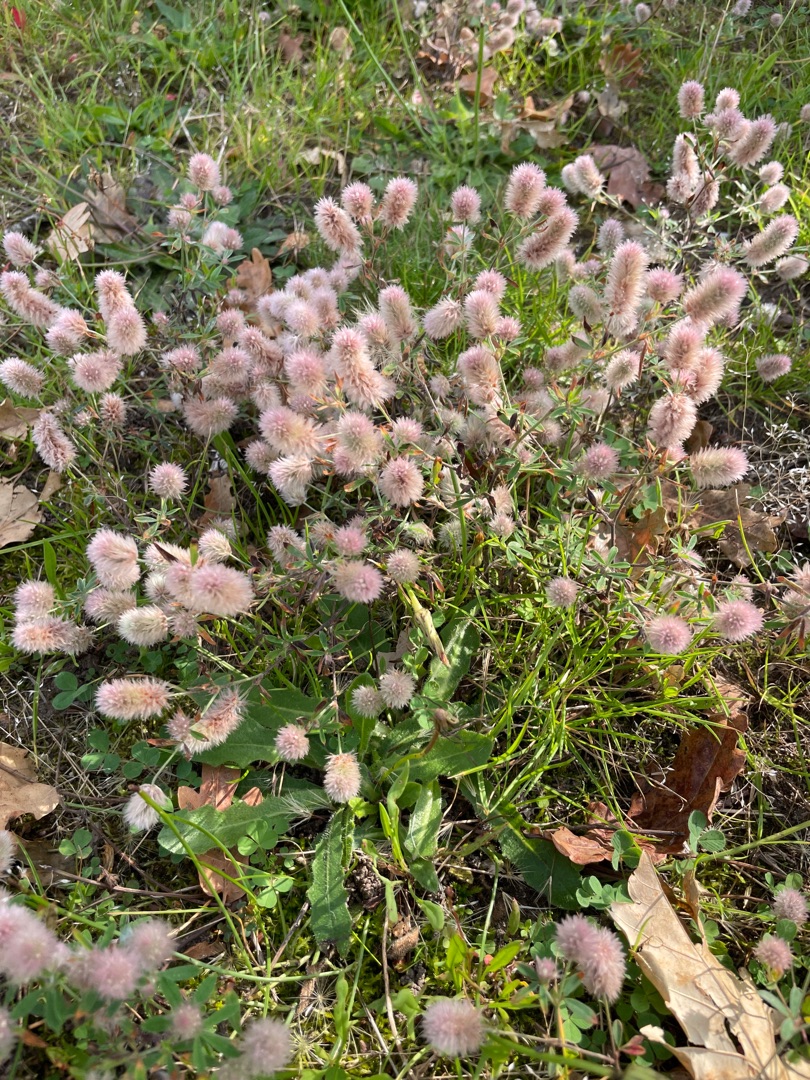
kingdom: Plantae
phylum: Tracheophyta
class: Magnoliopsida
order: Fabales
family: Fabaceae
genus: Trifolium
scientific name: Trifolium arvense
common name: Hare-kløver
